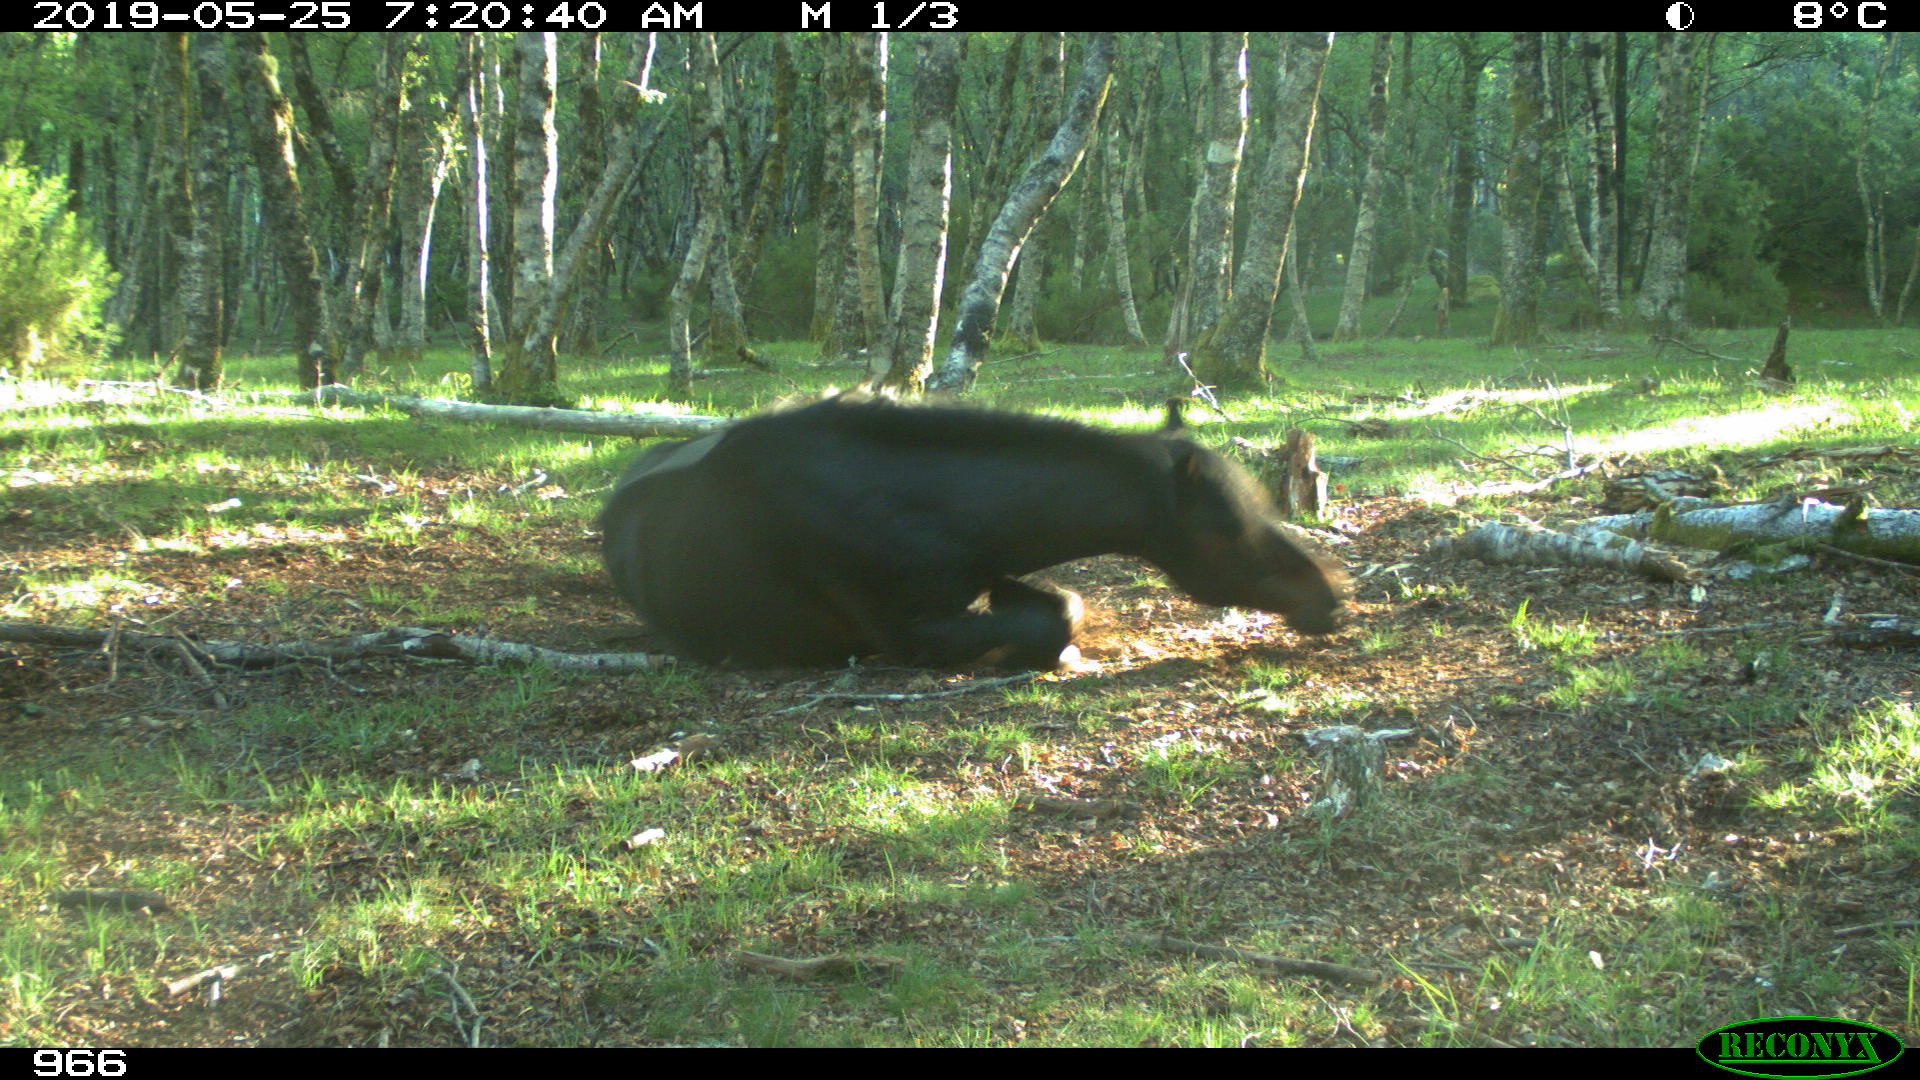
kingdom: Animalia
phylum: Chordata
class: Mammalia
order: Perissodactyla
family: Equidae
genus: Equus
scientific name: Equus caballus
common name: Horse
